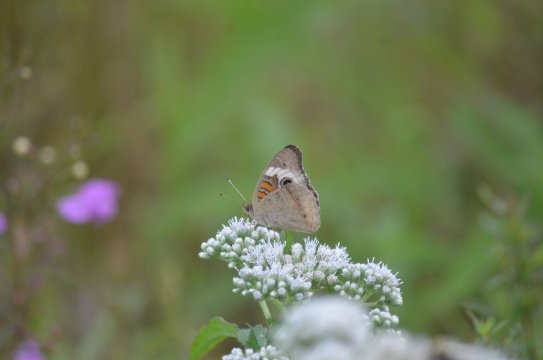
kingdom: Animalia
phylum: Arthropoda
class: Insecta
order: Lepidoptera
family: Nymphalidae
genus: Junonia
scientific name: Junonia coenia
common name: Common Buckeye
